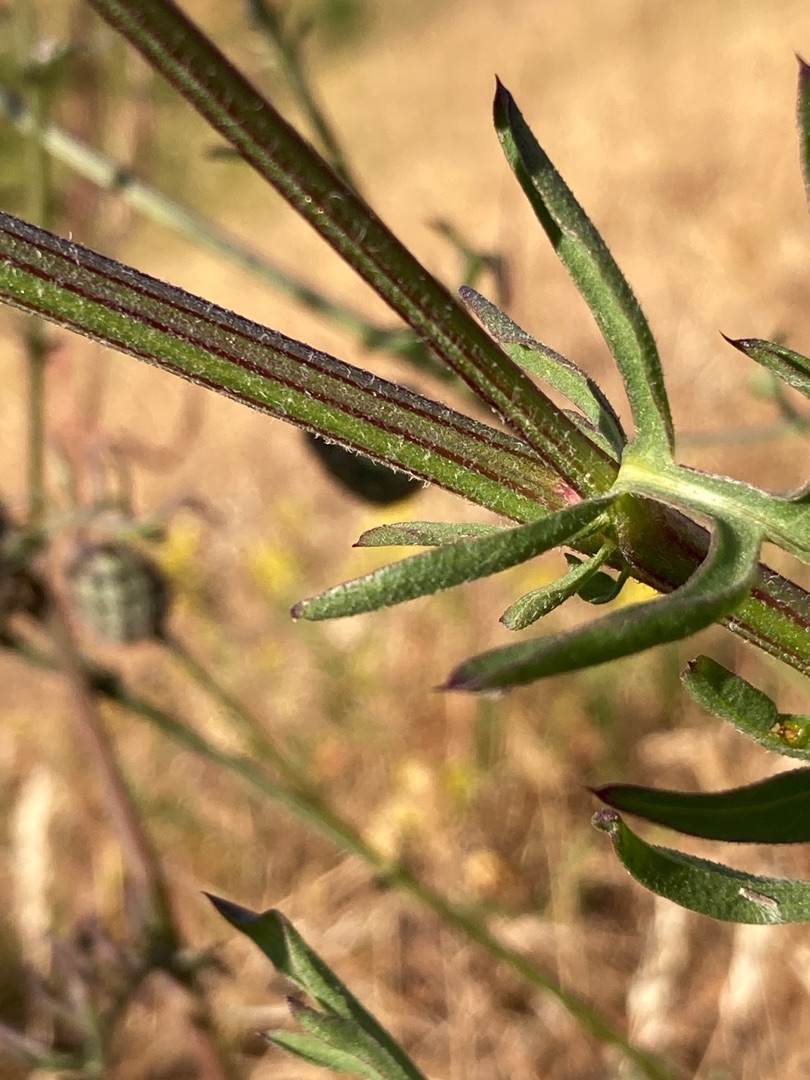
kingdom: Plantae
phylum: Tracheophyta
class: Magnoliopsida
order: Asterales
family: Asteraceae
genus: Centaurea
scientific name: Centaurea scabiosa
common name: Stor knopurt
